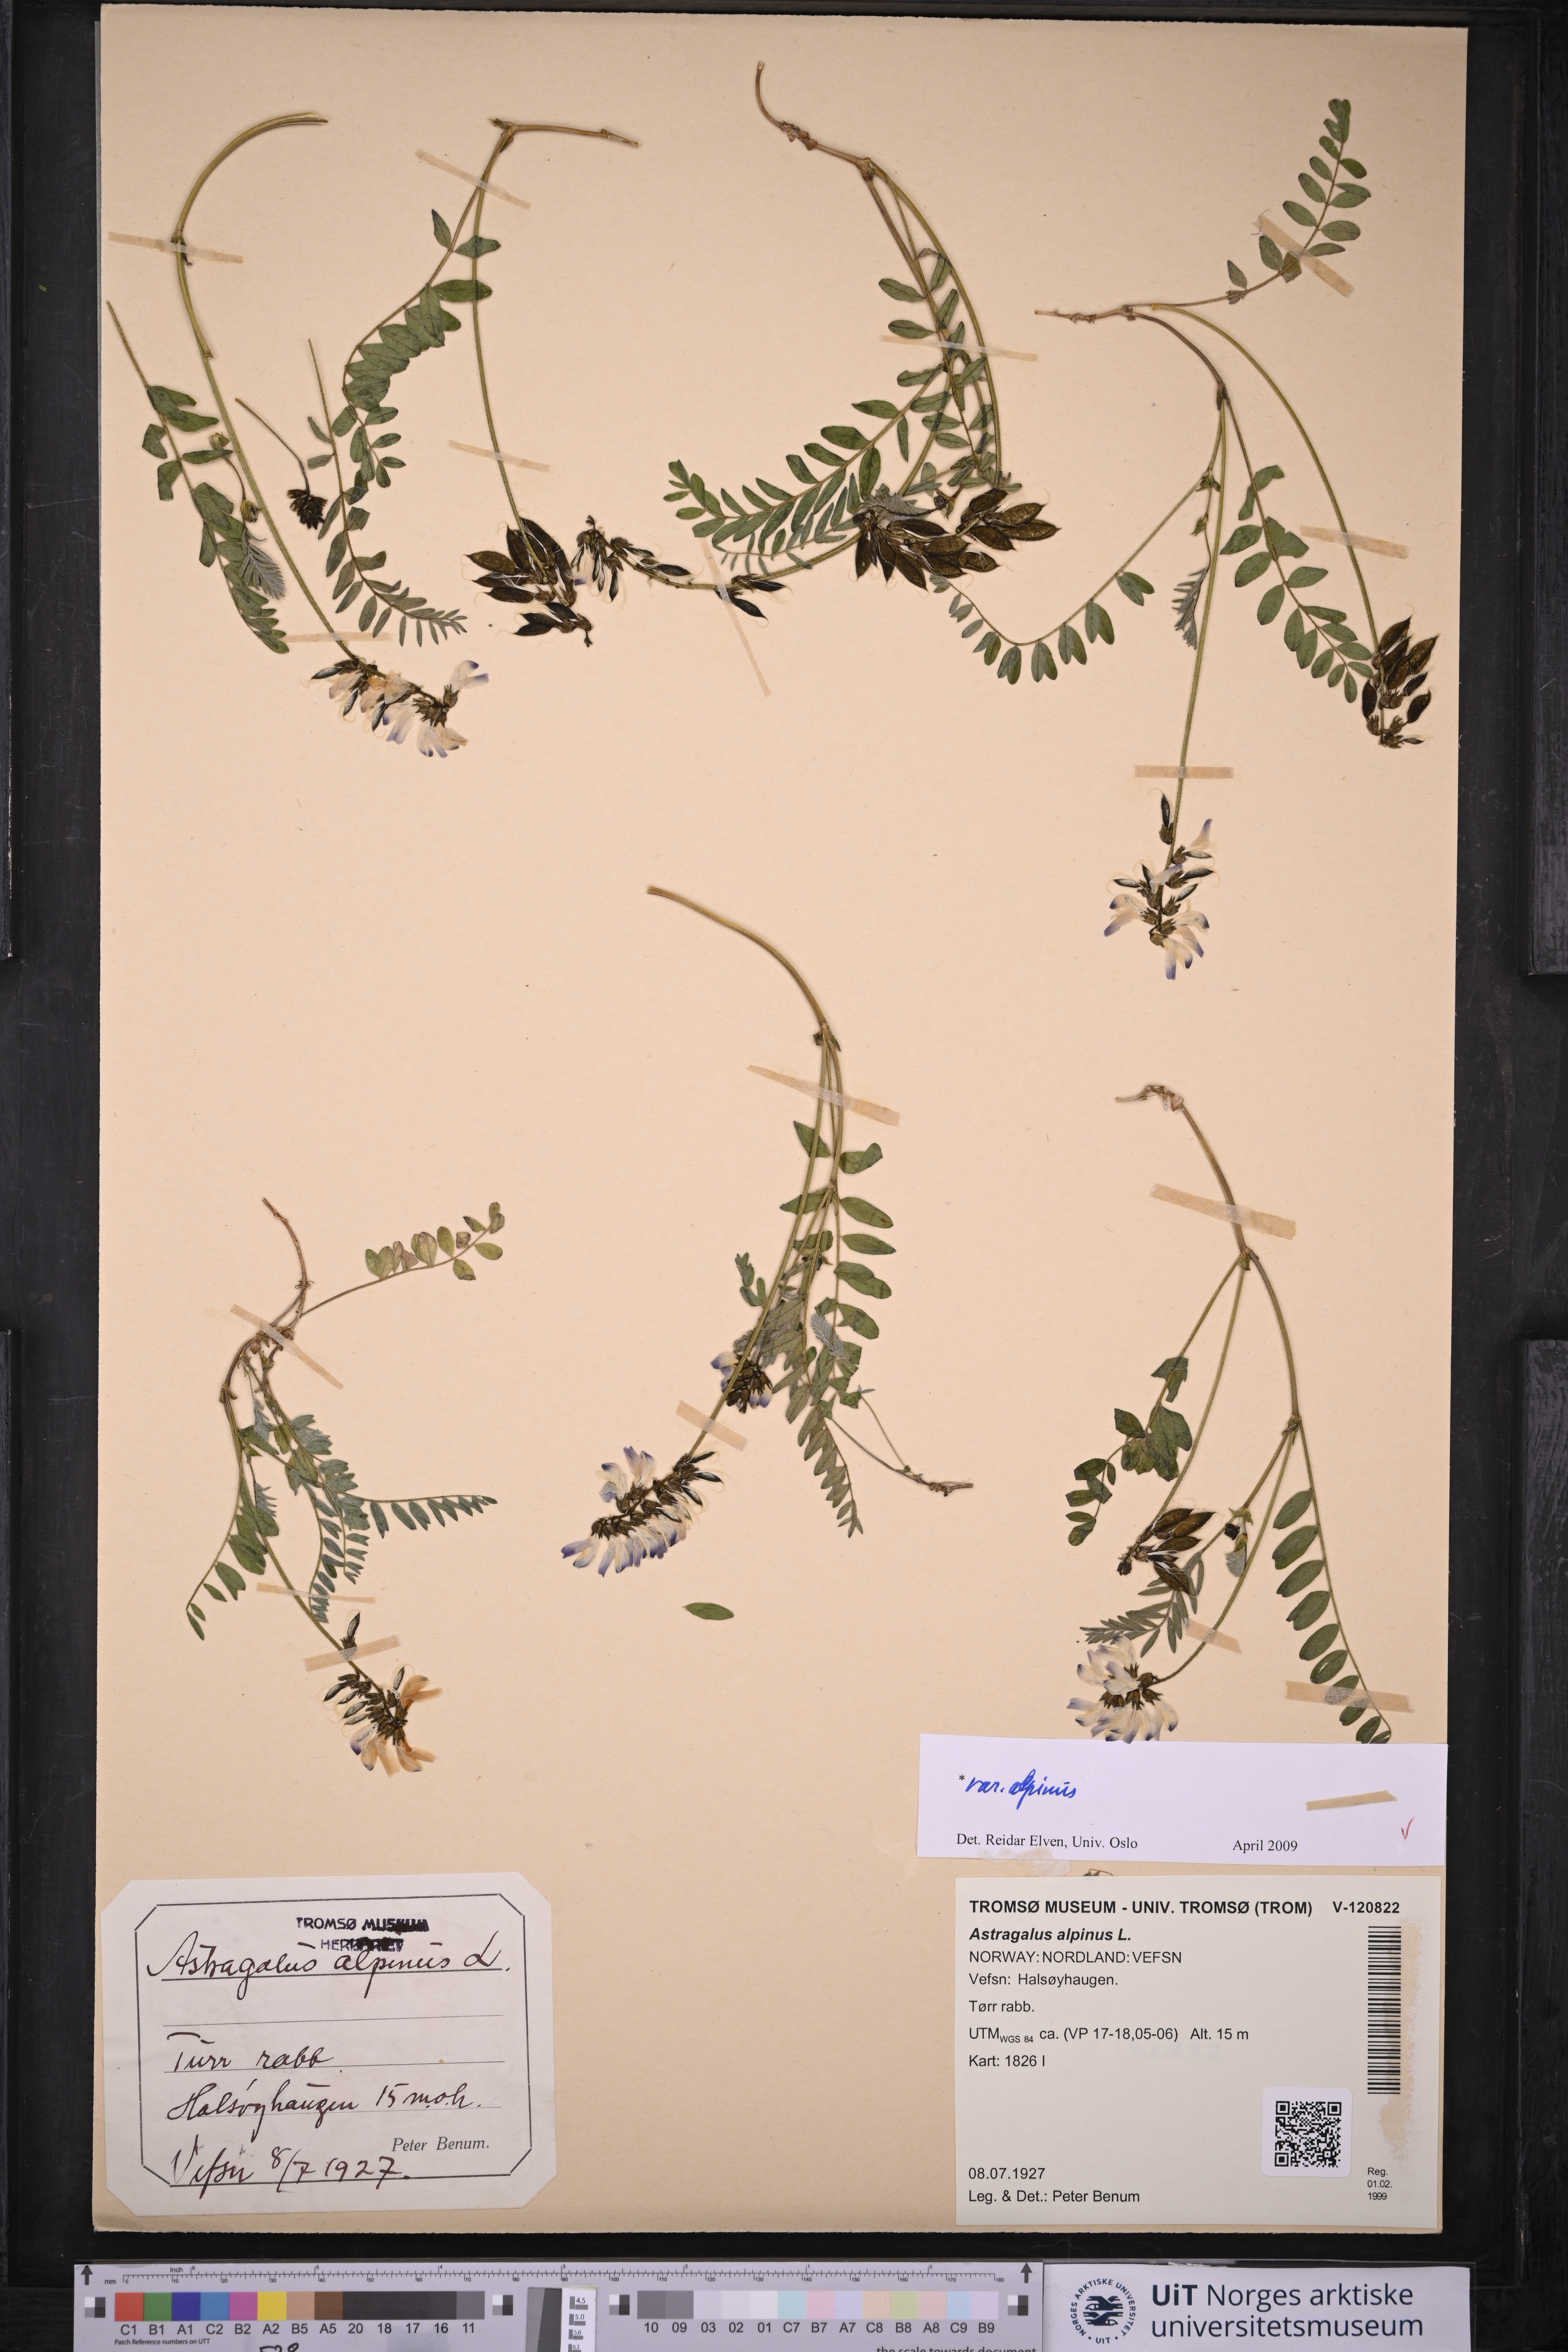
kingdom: Plantae
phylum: Tracheophyta
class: Magnoliopsida
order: Fabales
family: Fabaceae
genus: Astragalus
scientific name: Astragalus alpinus
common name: Alpine milk-vetch
